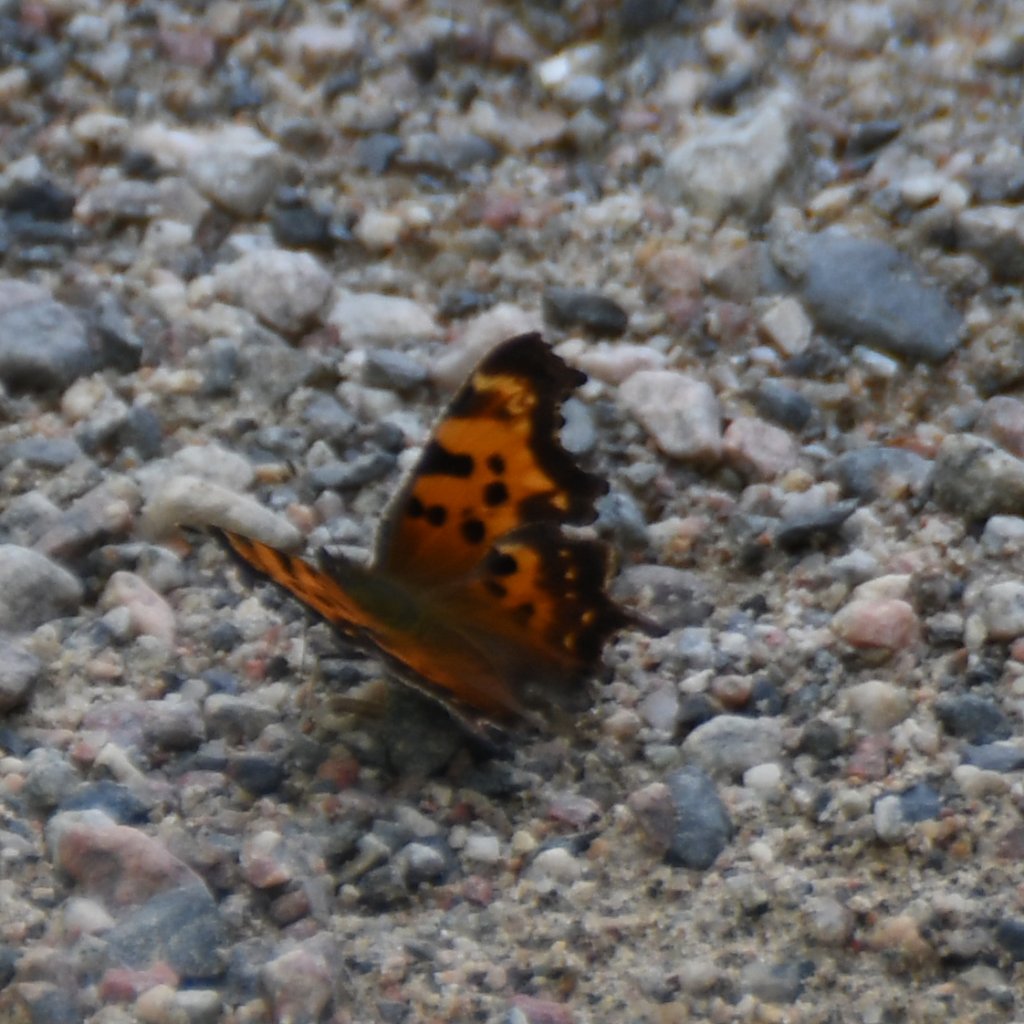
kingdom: Animalia
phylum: Arthropoda
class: Insecta
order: Lepidoptera
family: Nymphalidae
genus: Polygonia
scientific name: Polygonia faunus
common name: Green Comma
